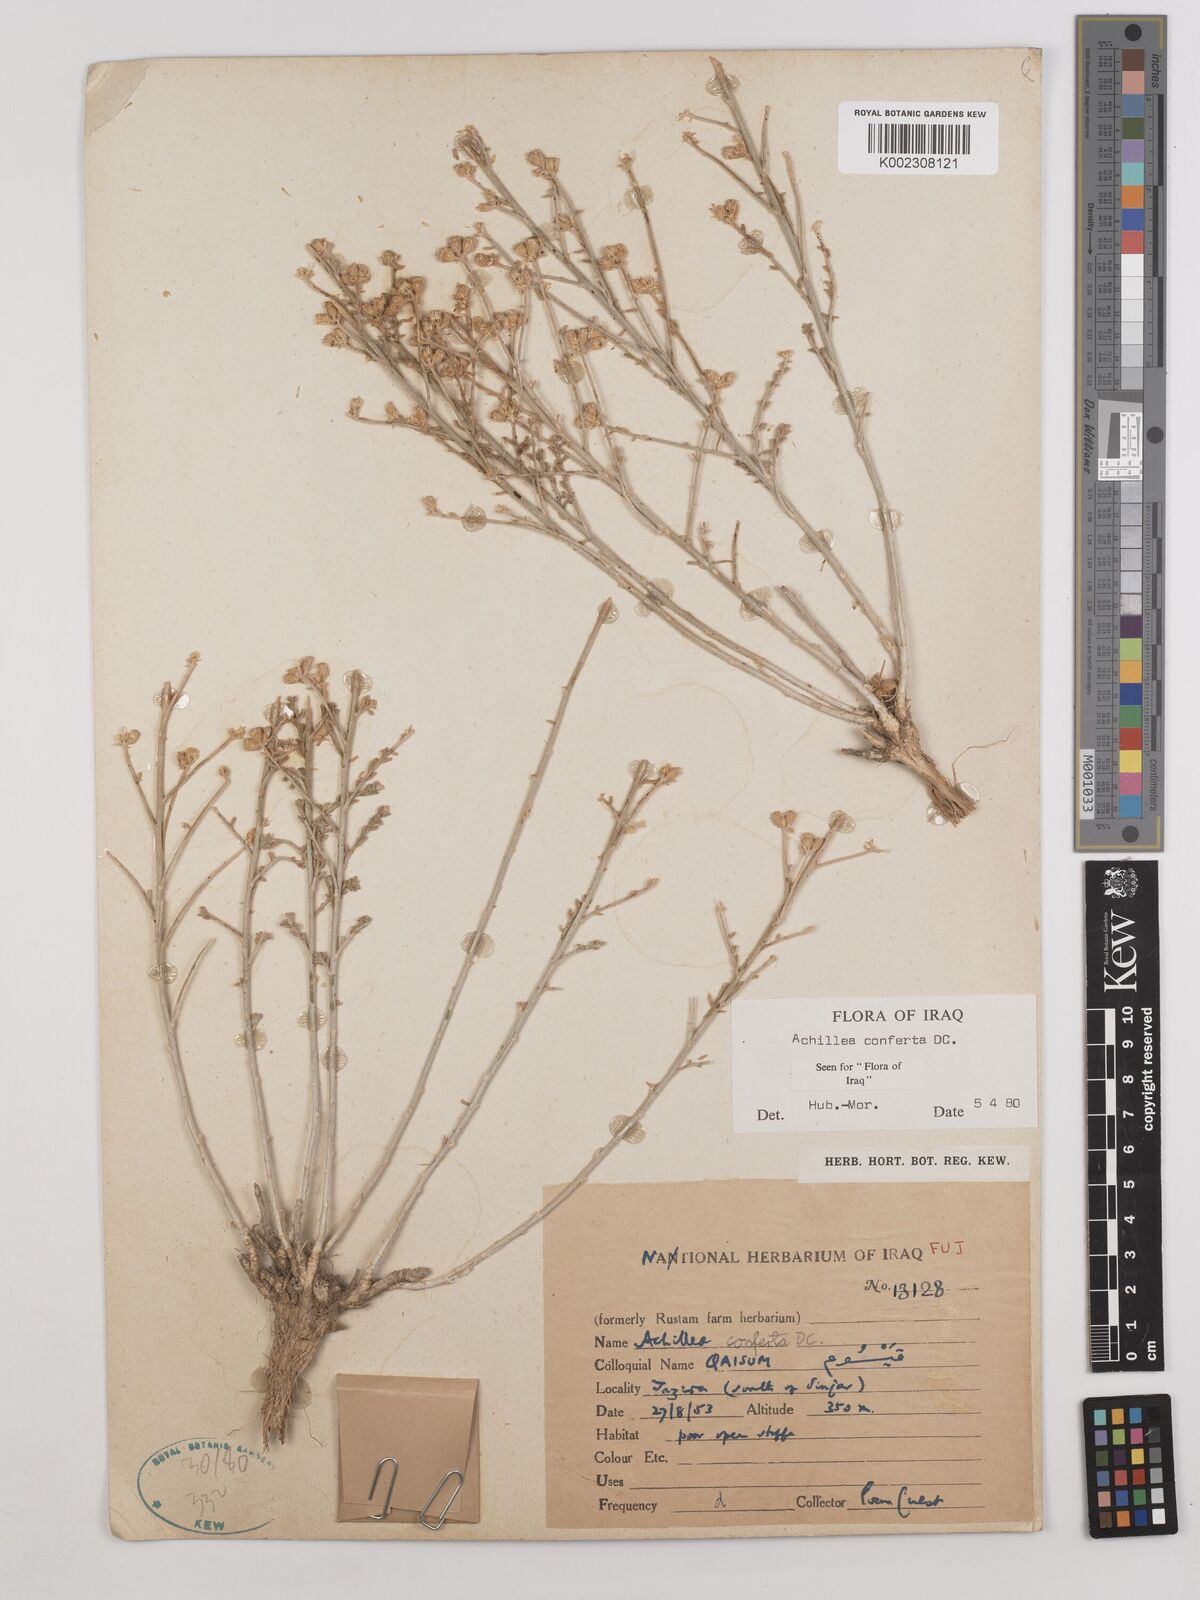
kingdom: Plantae
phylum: Tracheophyta
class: Magnoliopsida
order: Asterales
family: Asteraceae
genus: Achillea
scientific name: Achillea conferta
